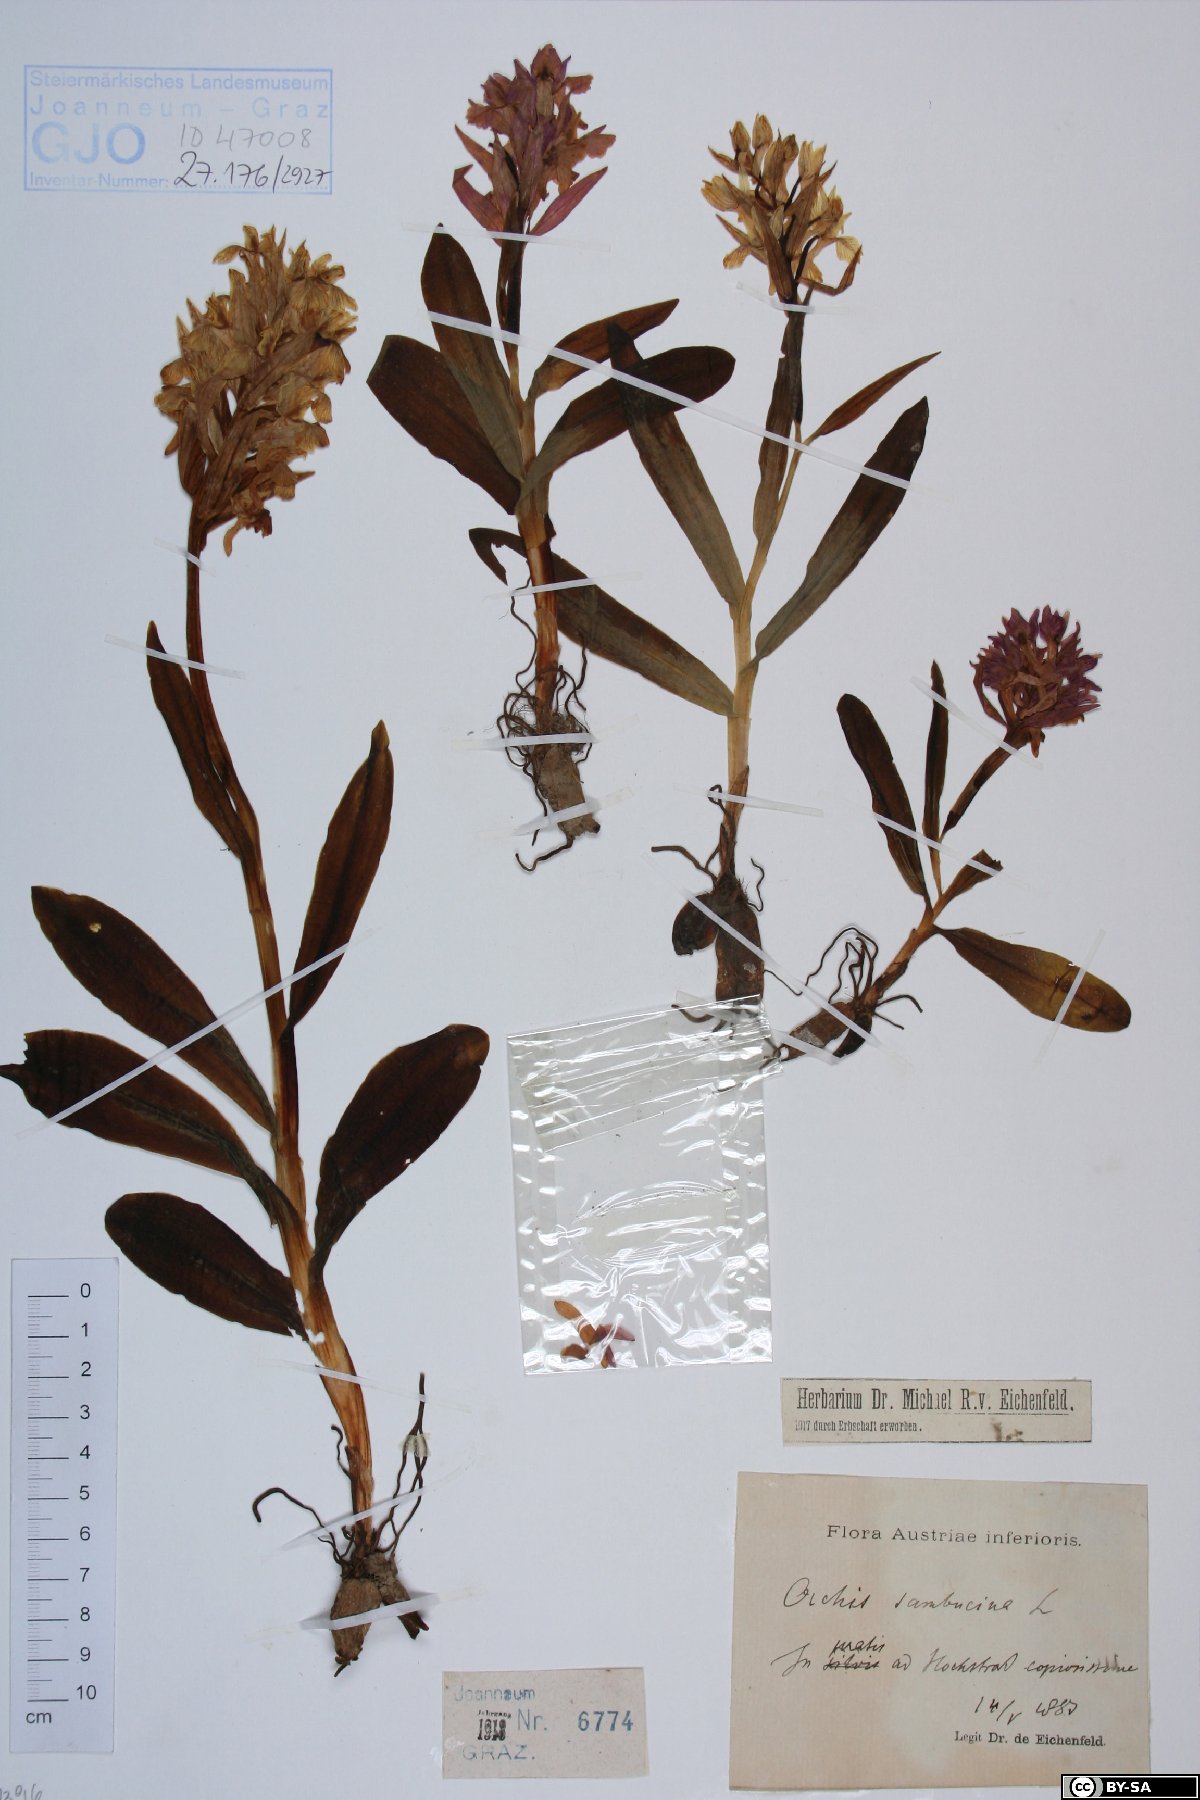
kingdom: Plantae
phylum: Tracheophyta
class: Liliopsida
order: Asparagales
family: Orchidaceae
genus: Dactylorhiza
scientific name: Dactylorhiza sambucina
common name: Elder-flowered orchid
